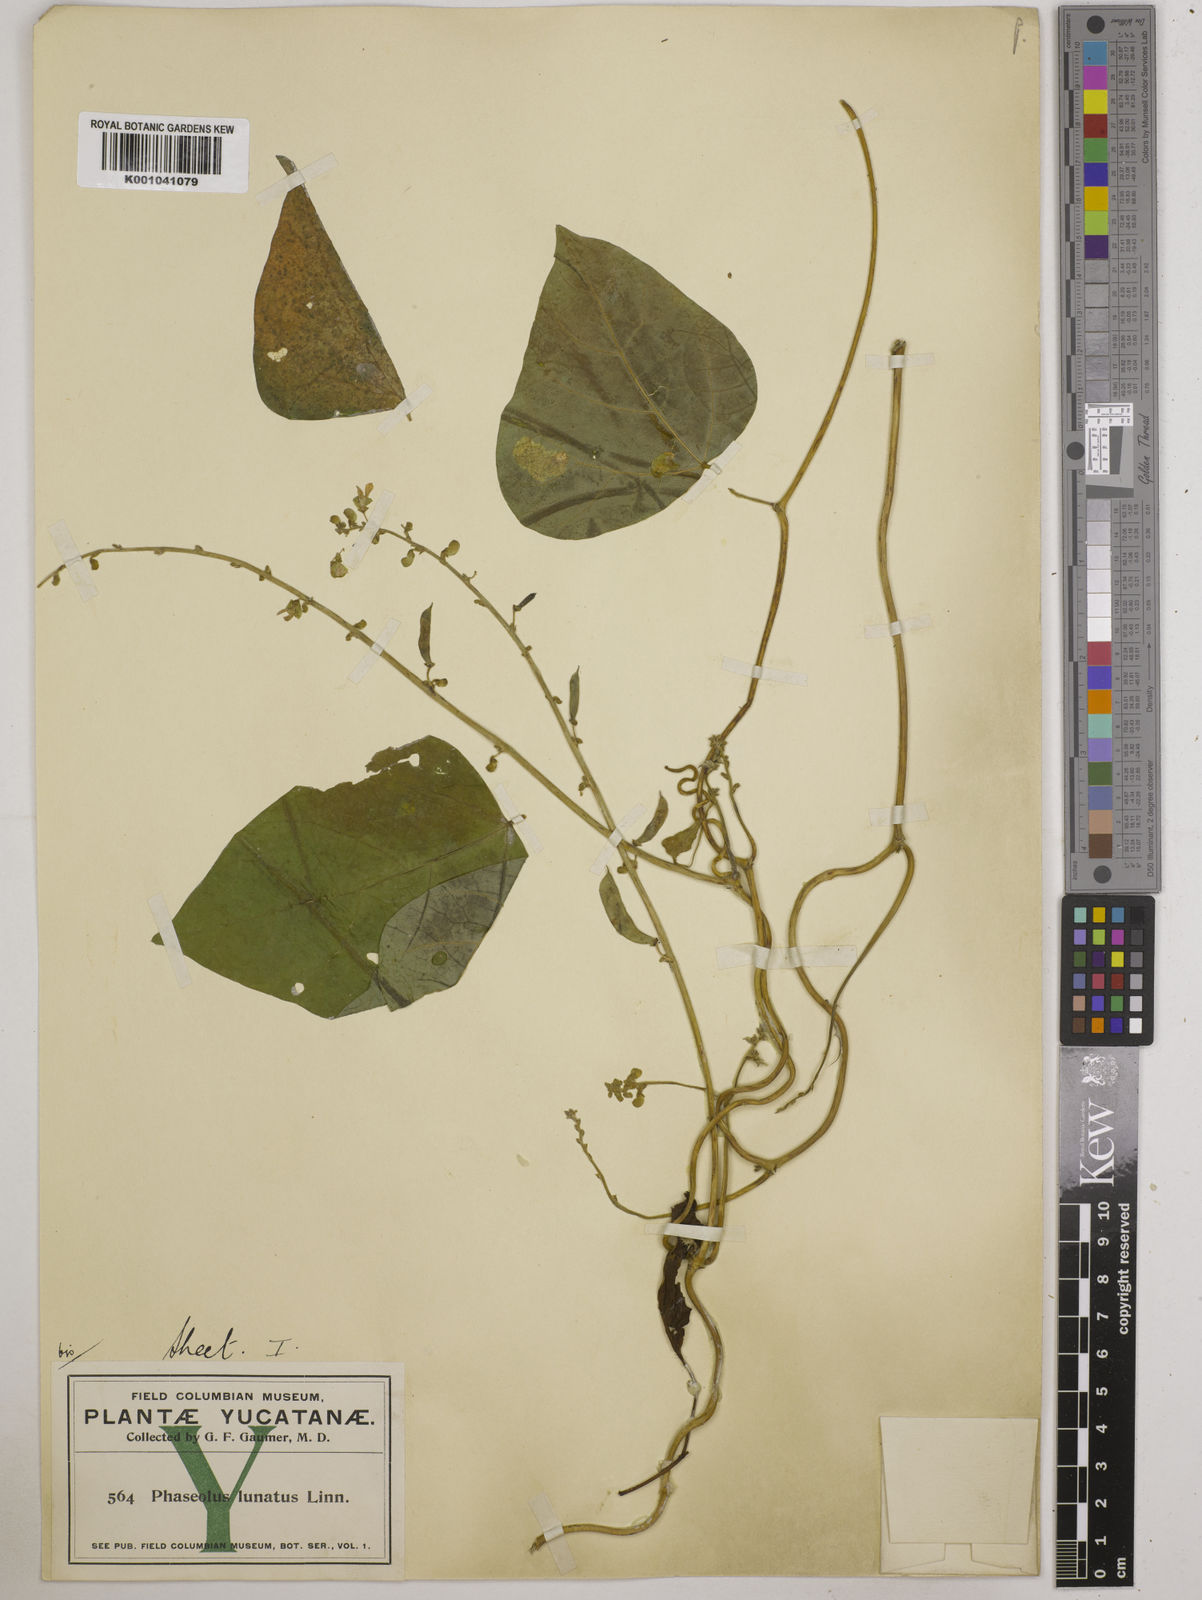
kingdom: Plantae
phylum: Tracheophyta
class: Magnoliopsida
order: Fabales
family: Fabaceae
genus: Phaseolus
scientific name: Phaseolus lunatus
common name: Sieva bean
